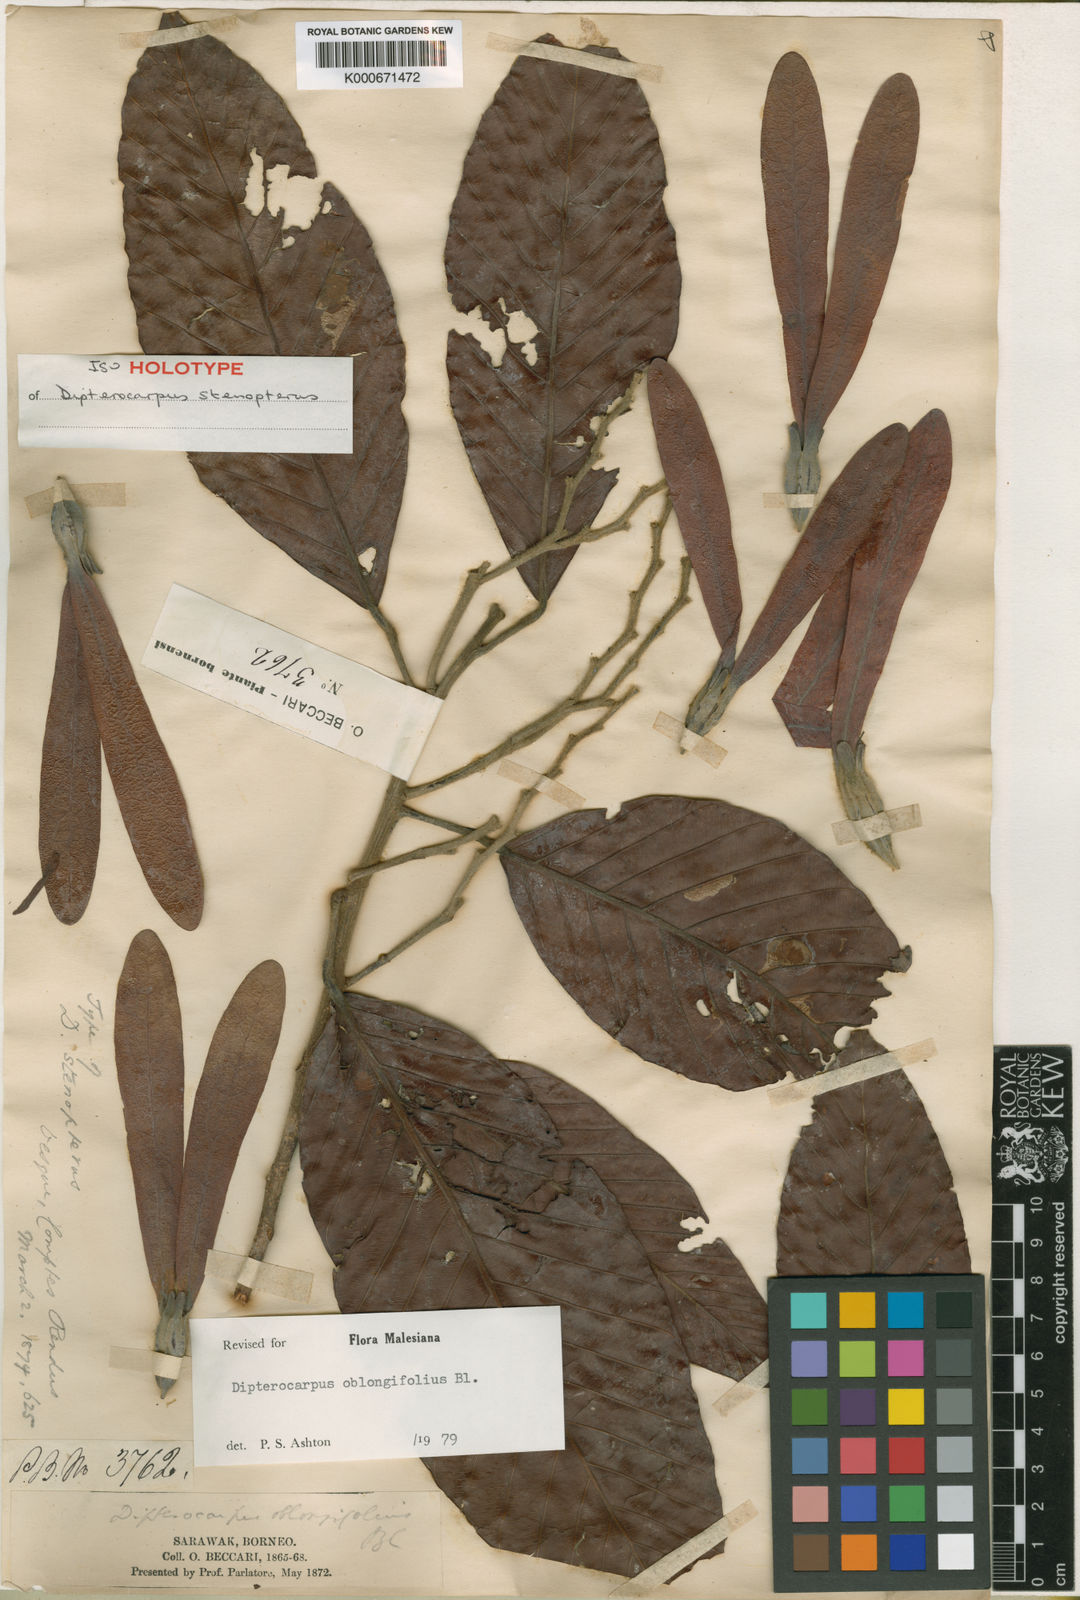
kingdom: Plantae
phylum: Tracheophyta
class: Magnoliopsida
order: Malvales
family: Dipterocarpaceae
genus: Dipterocarpus
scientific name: Dipterocarpus oblongifolius
